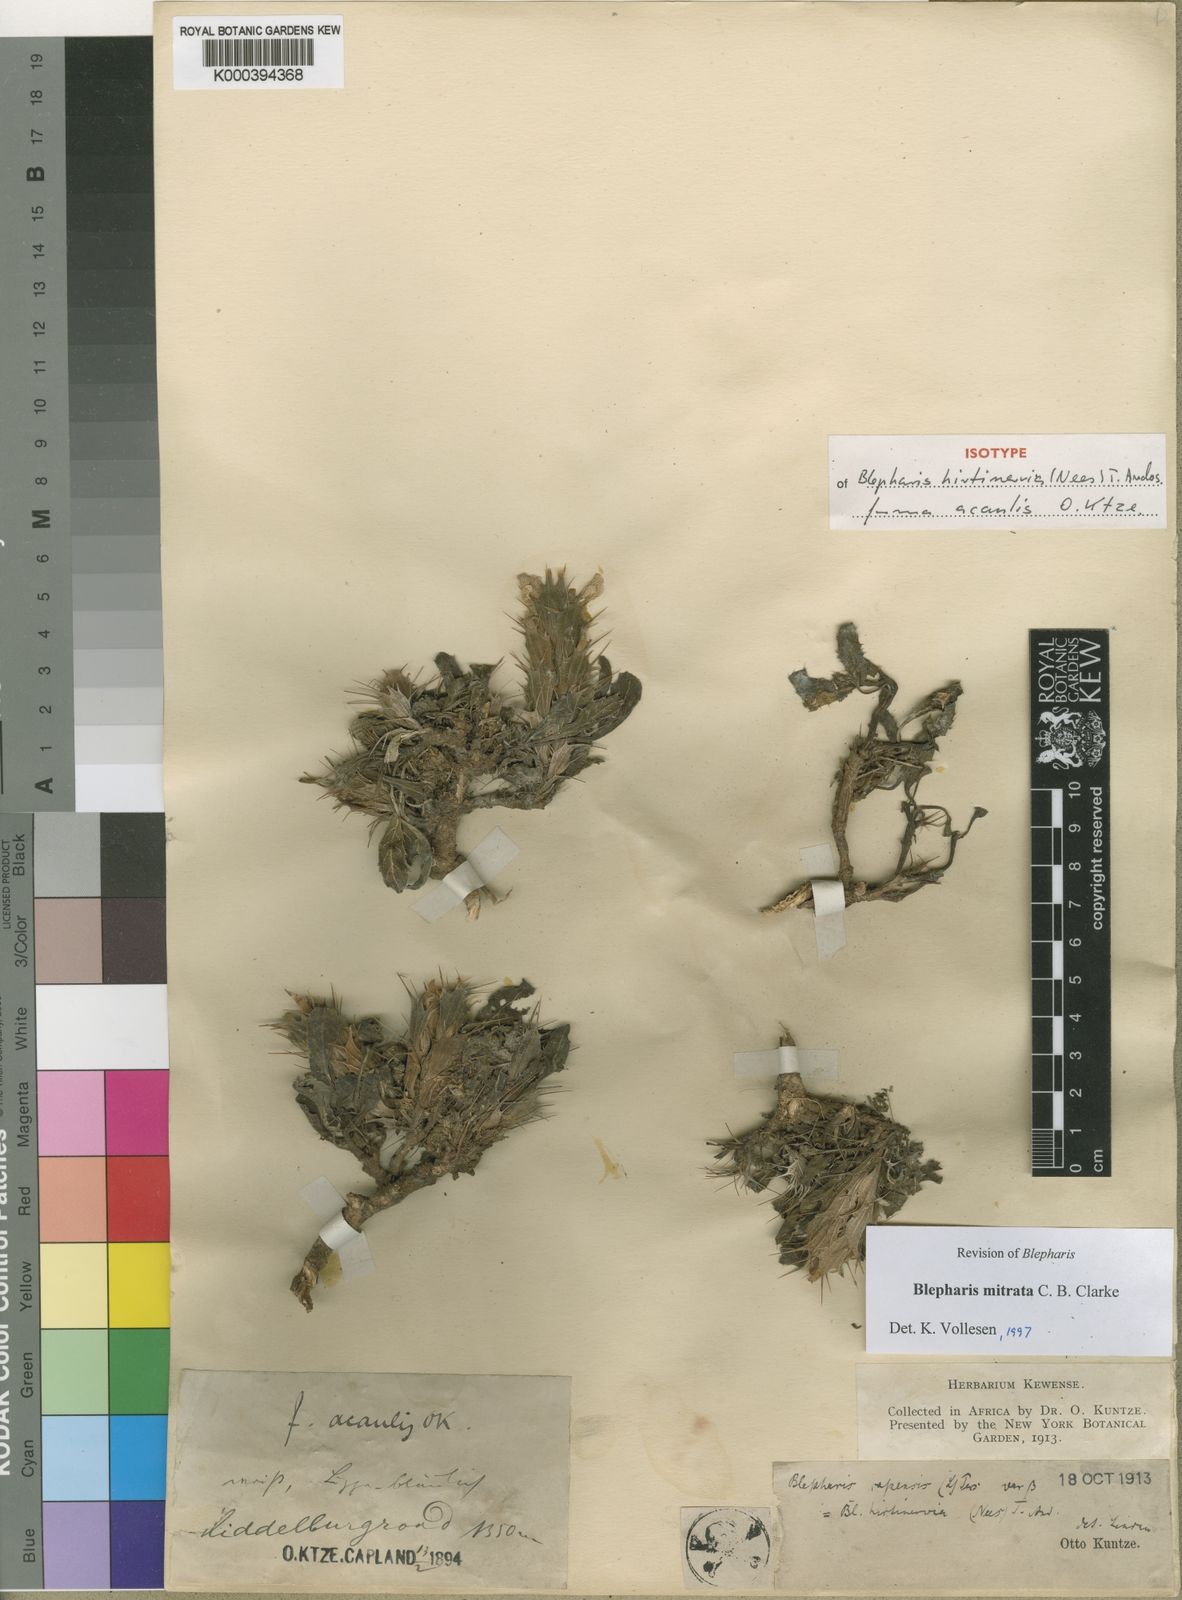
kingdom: Plantae
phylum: Tracheophyta
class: Magnoliopsida
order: Lamiales
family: Acanthaceae
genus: Blepharis
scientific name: Blepharis mitrata
